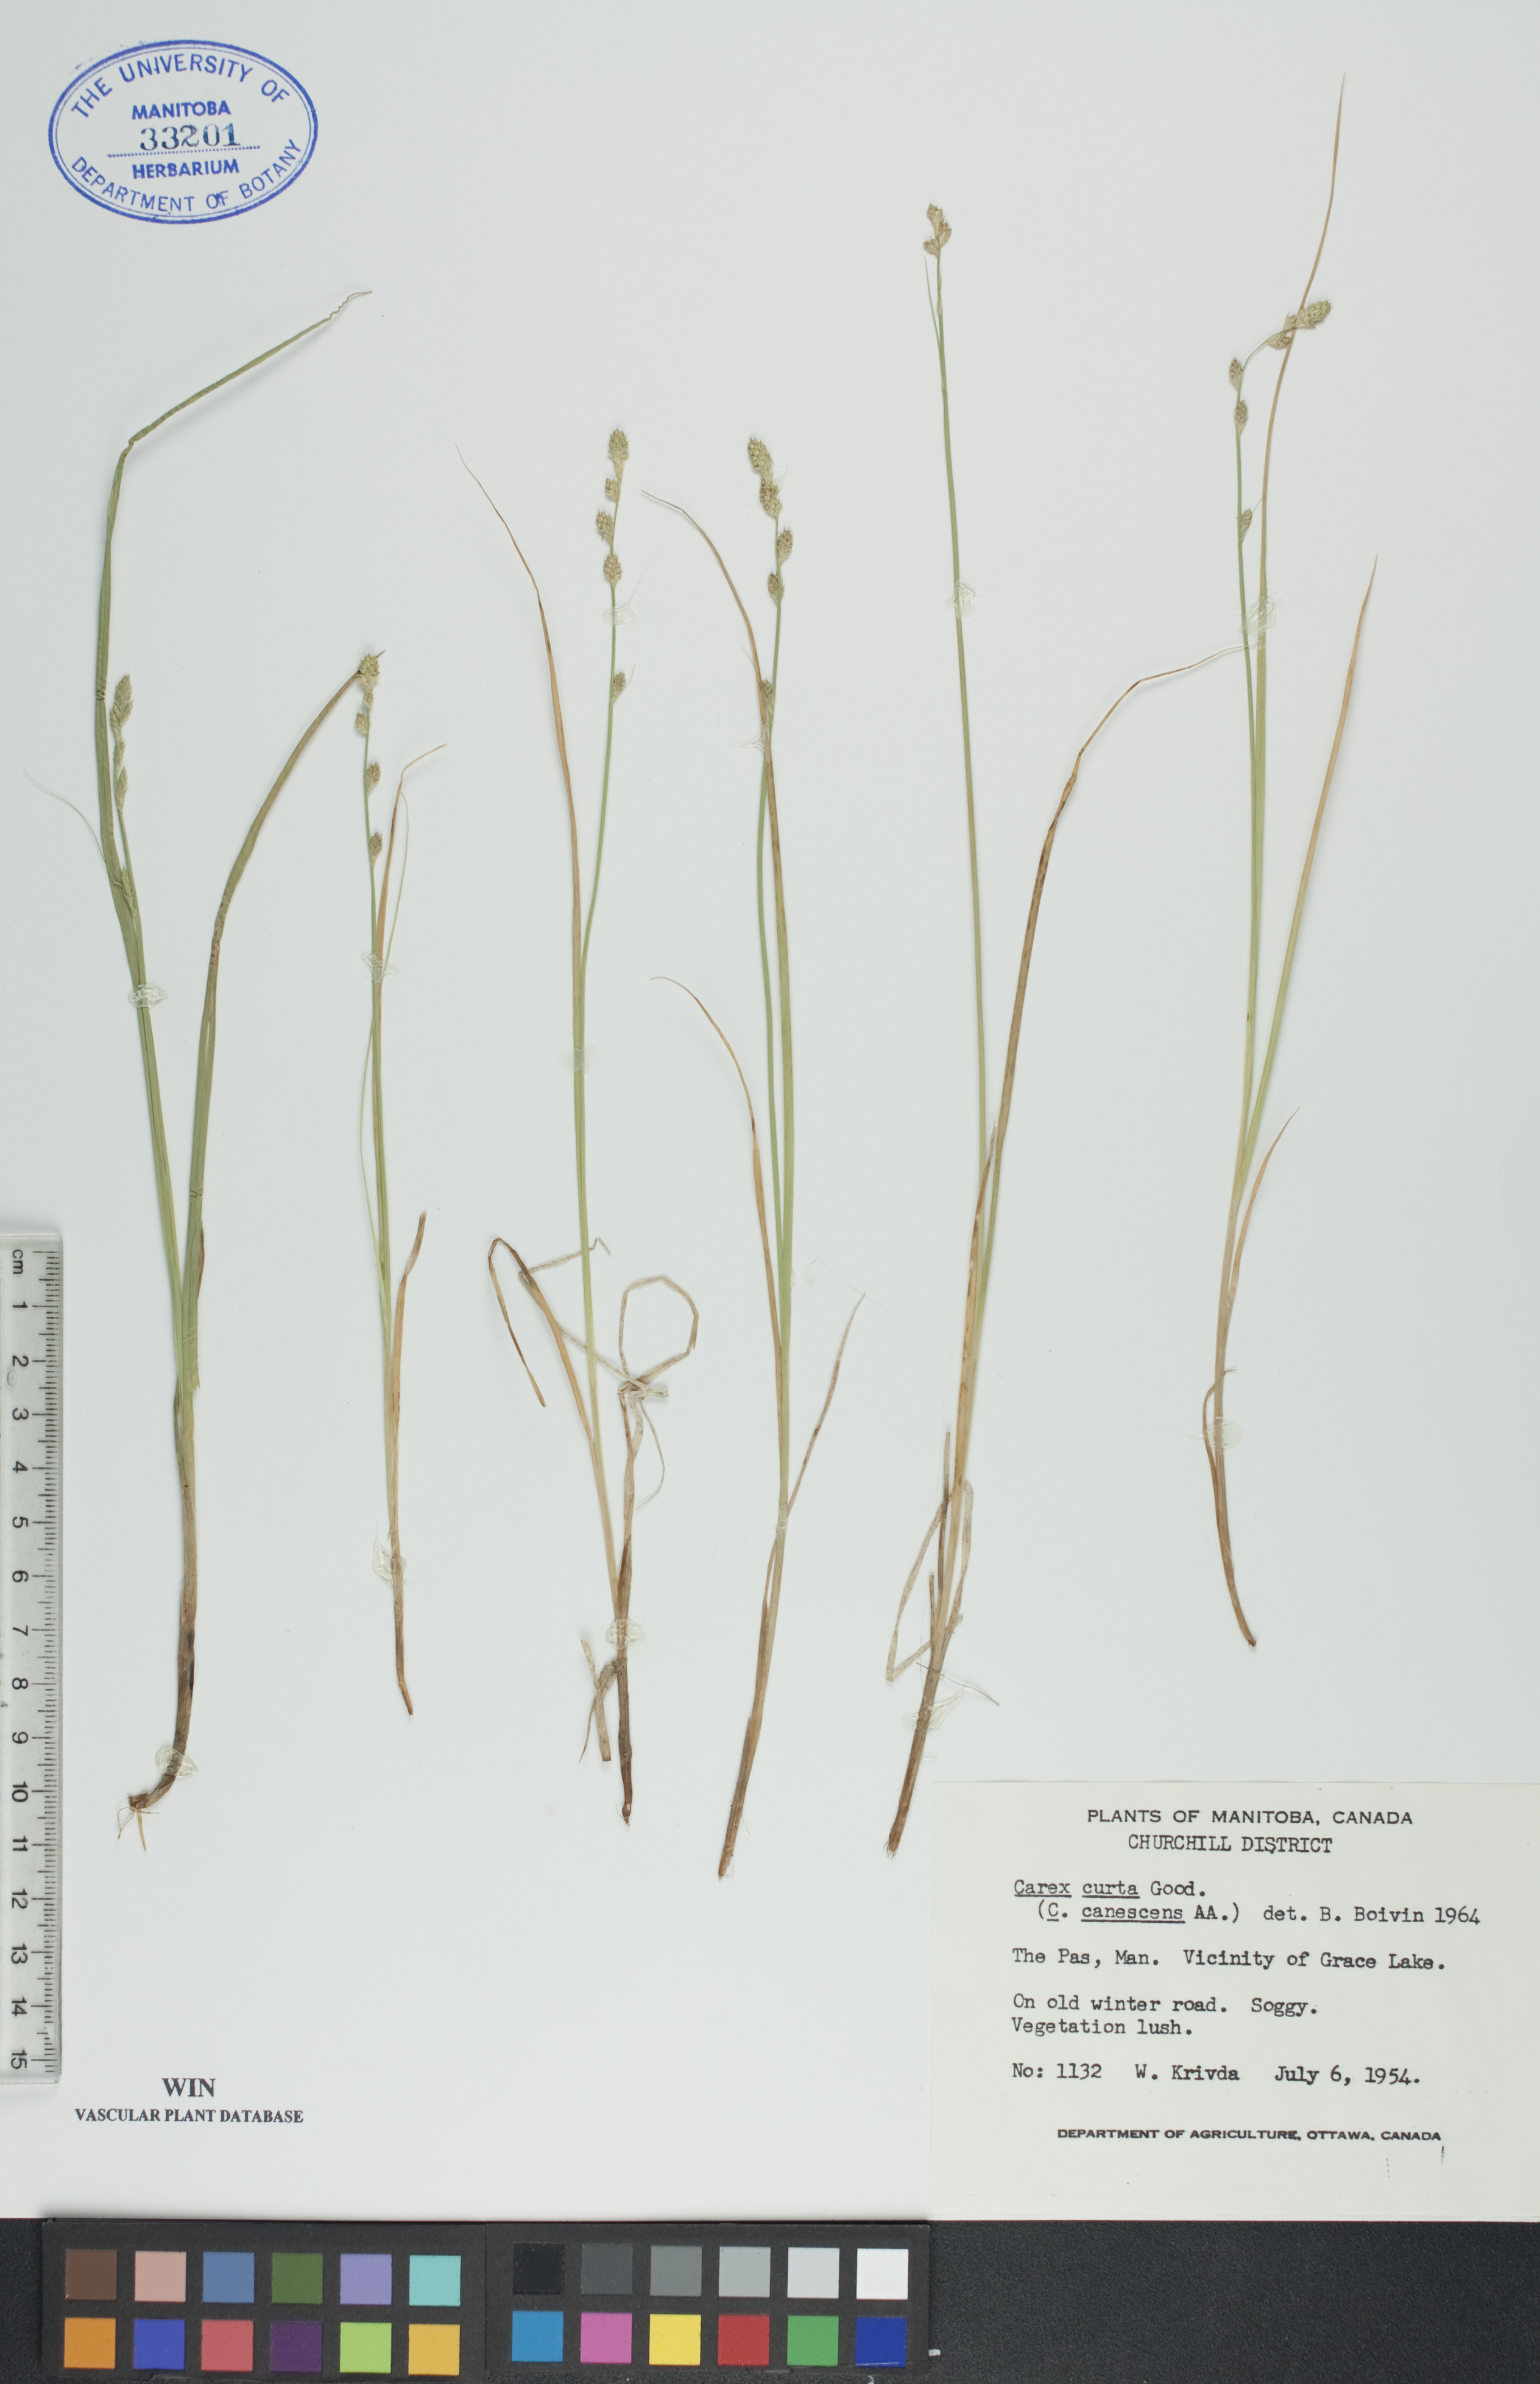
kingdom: Plantae
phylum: Tracheophyta
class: Liliopsida
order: Poales
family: Cyperaceae
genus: Carex
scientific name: Carex canescens
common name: White sedge
